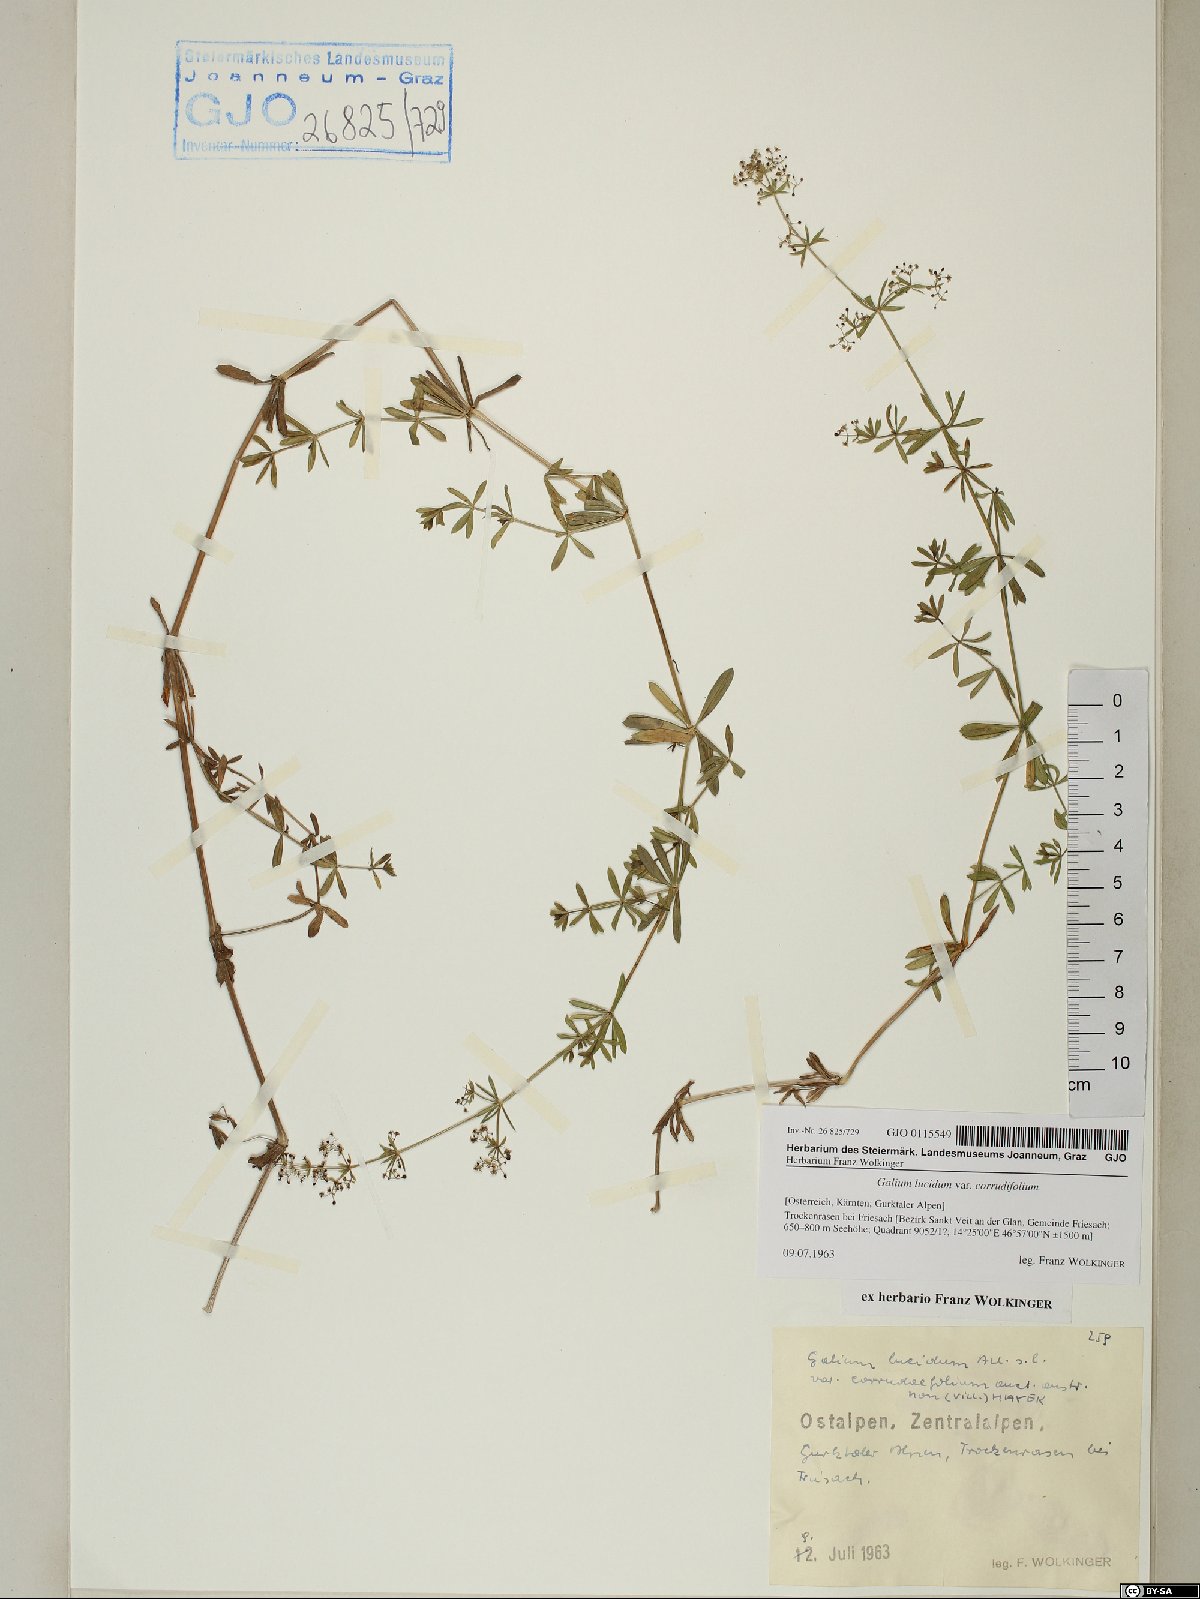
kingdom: Plantae
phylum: Tracheophyta
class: Magnoliopsida
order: Gentianales
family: Rubiaceae
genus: Galium
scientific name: Galium lucidum
